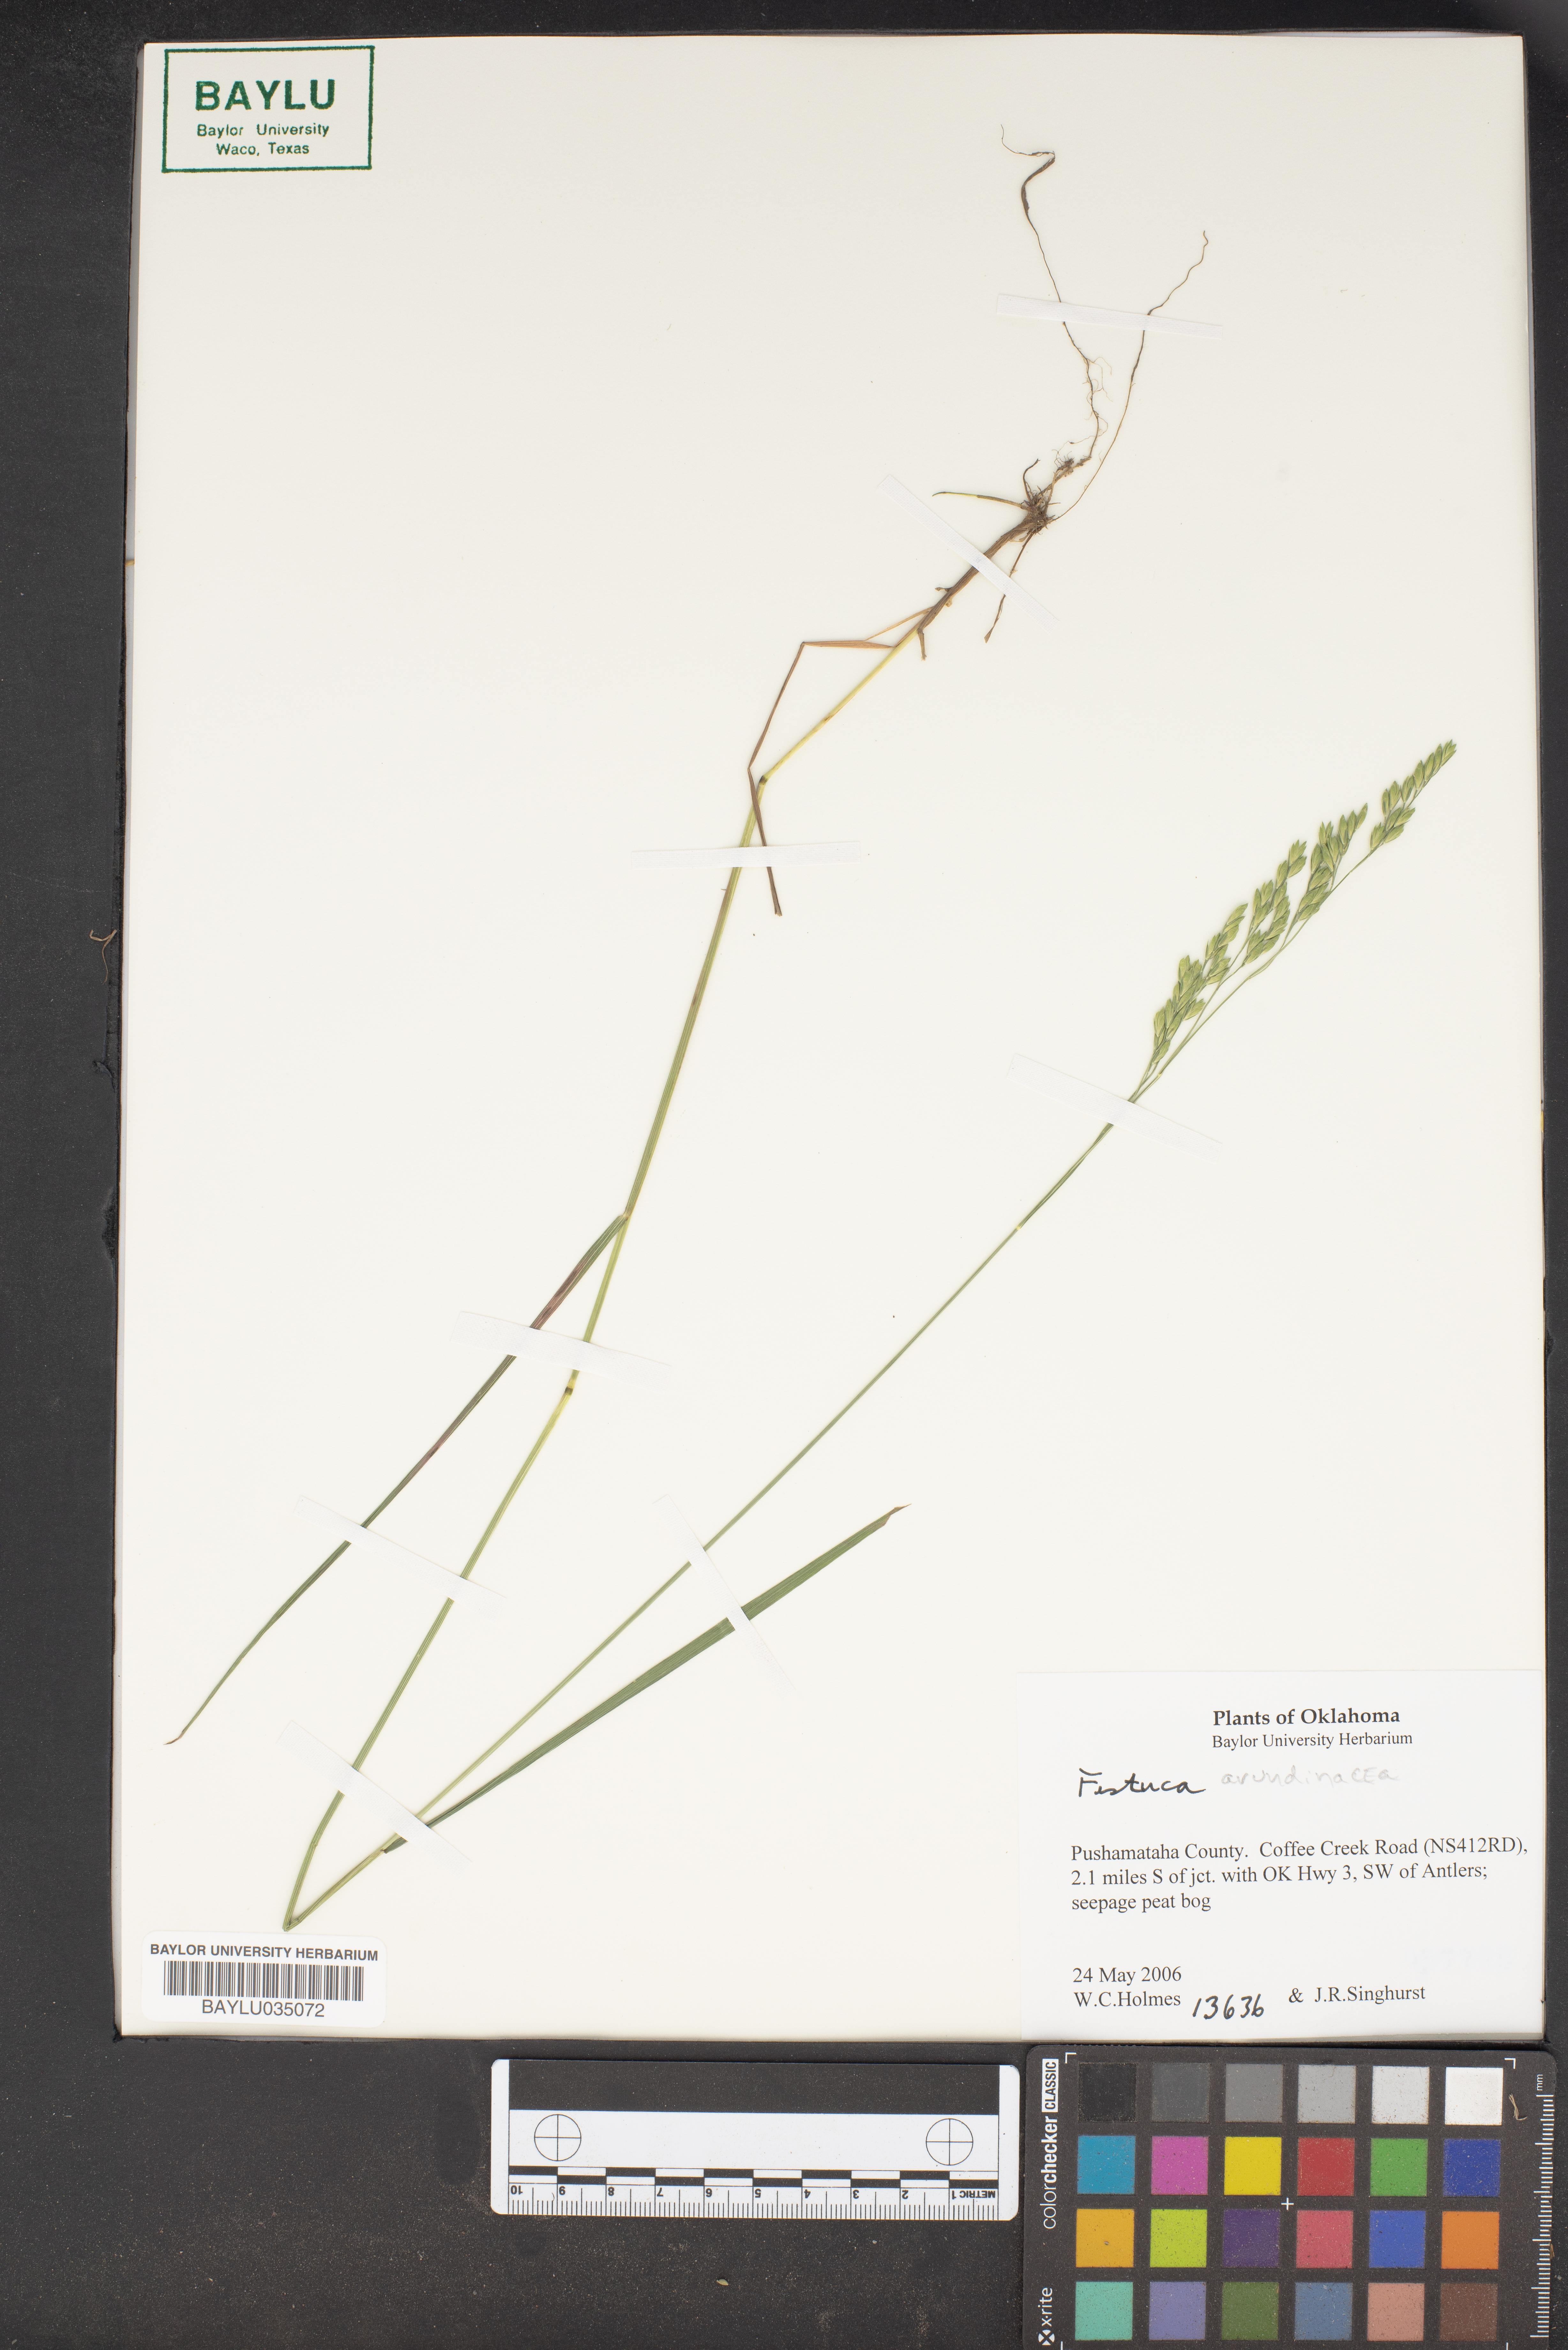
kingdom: Plantae
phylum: Tracheophyta
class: Liliopsida
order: Poales
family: Poaceae
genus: Lolium
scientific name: Lolium arundinaceum
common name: Reed fescue
